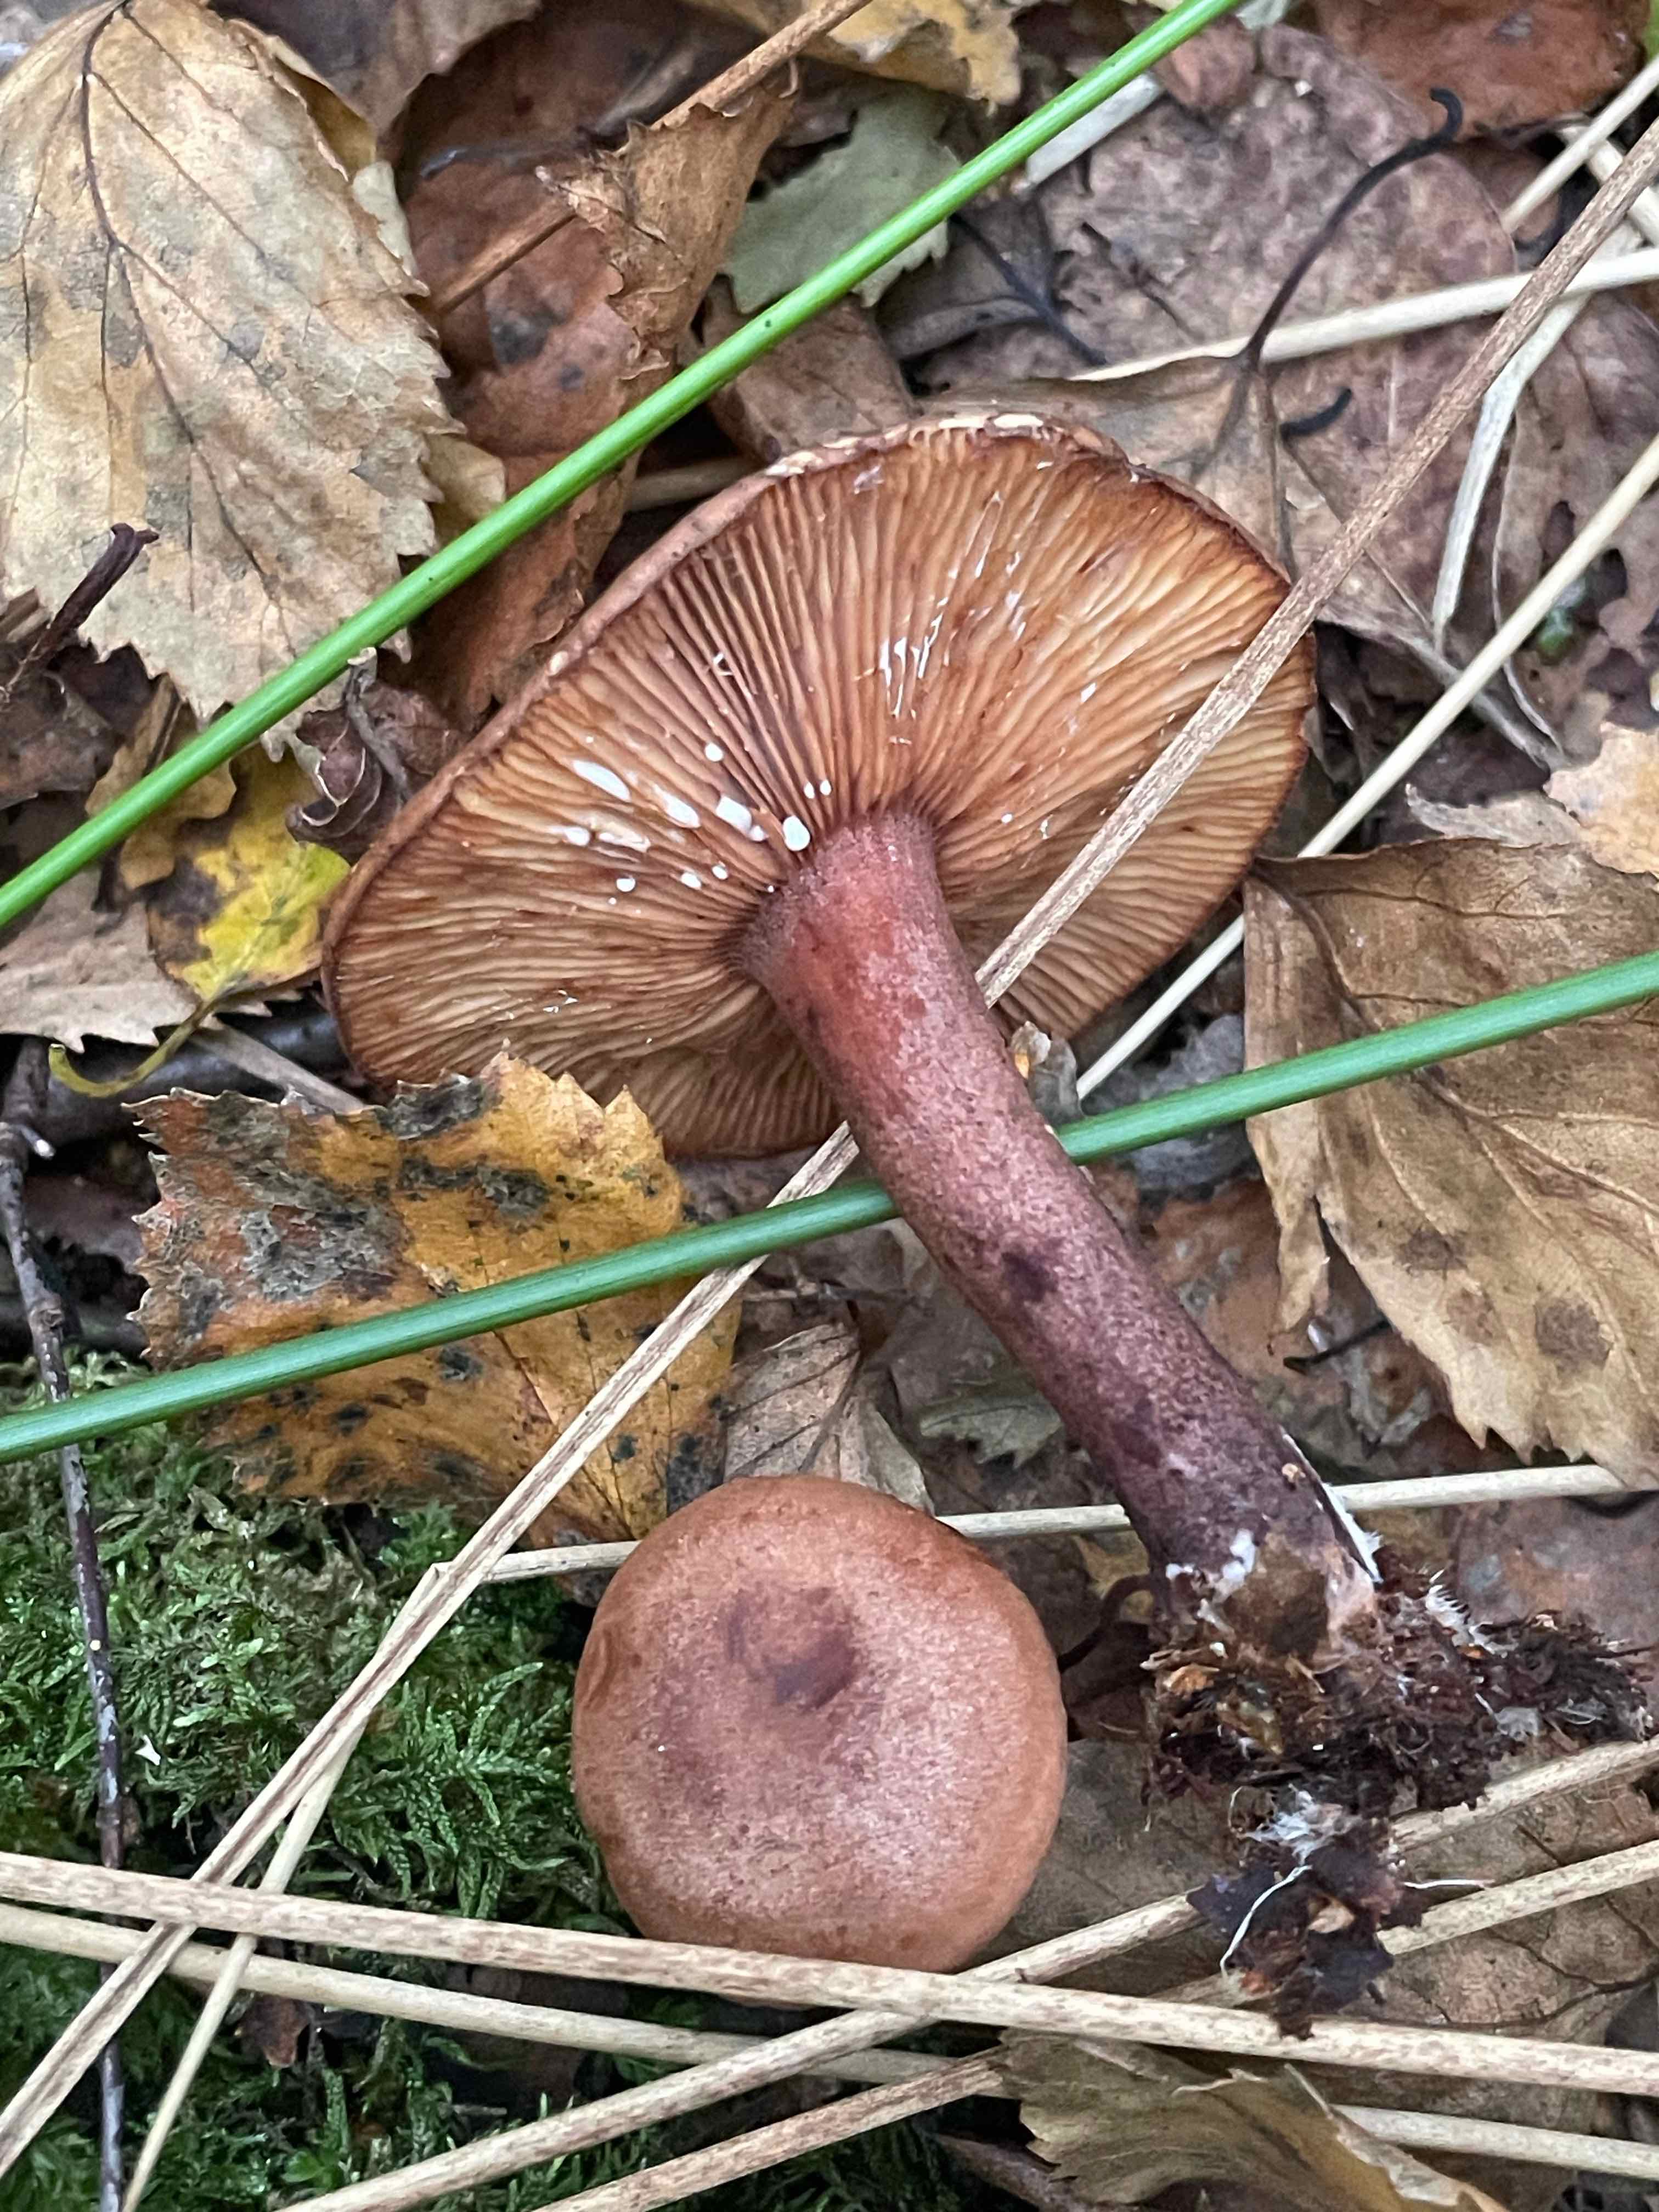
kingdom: Fungi
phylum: Basidiomycota
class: Agaricomycetes
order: Russulales
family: Russulaceae
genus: Lactarius
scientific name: Lactarius camphoratus
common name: kamfer-mælkehat
